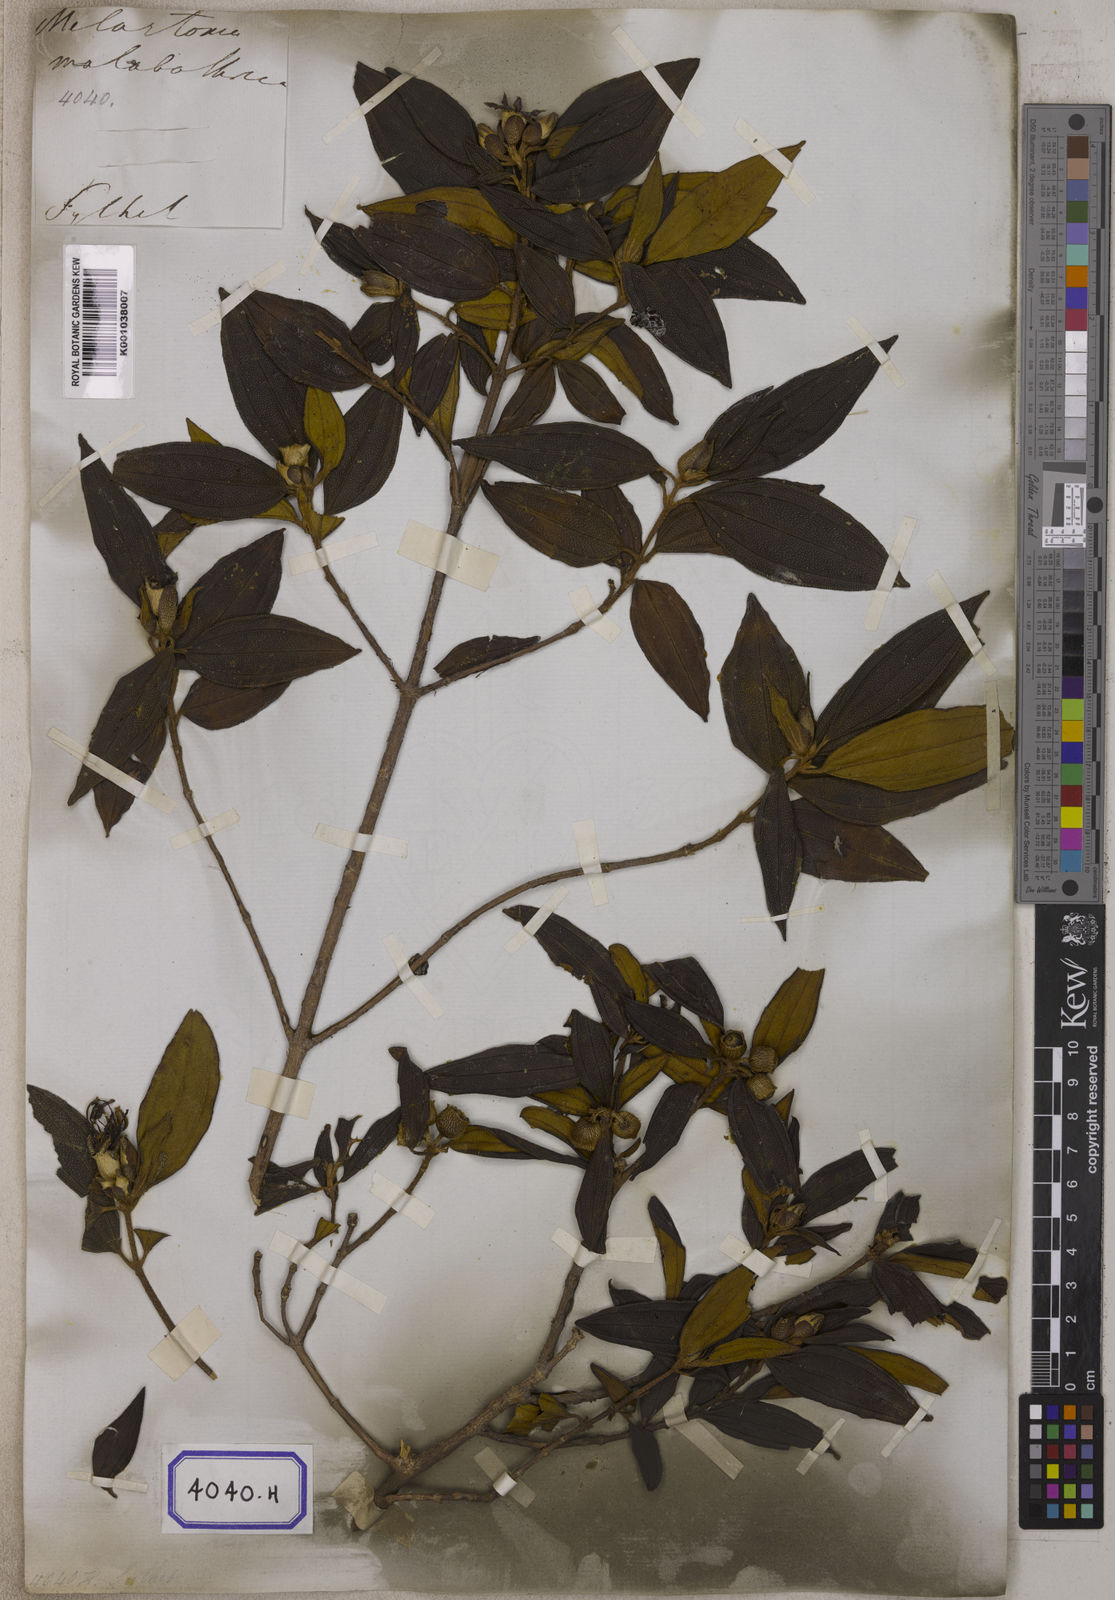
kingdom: Plantae
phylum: Tracheophyta
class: Magnoliopsida
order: Myrtales
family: Melastomataceae
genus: Melastoma
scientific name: Melastoma malabathricum
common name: Indian-rhododendron
